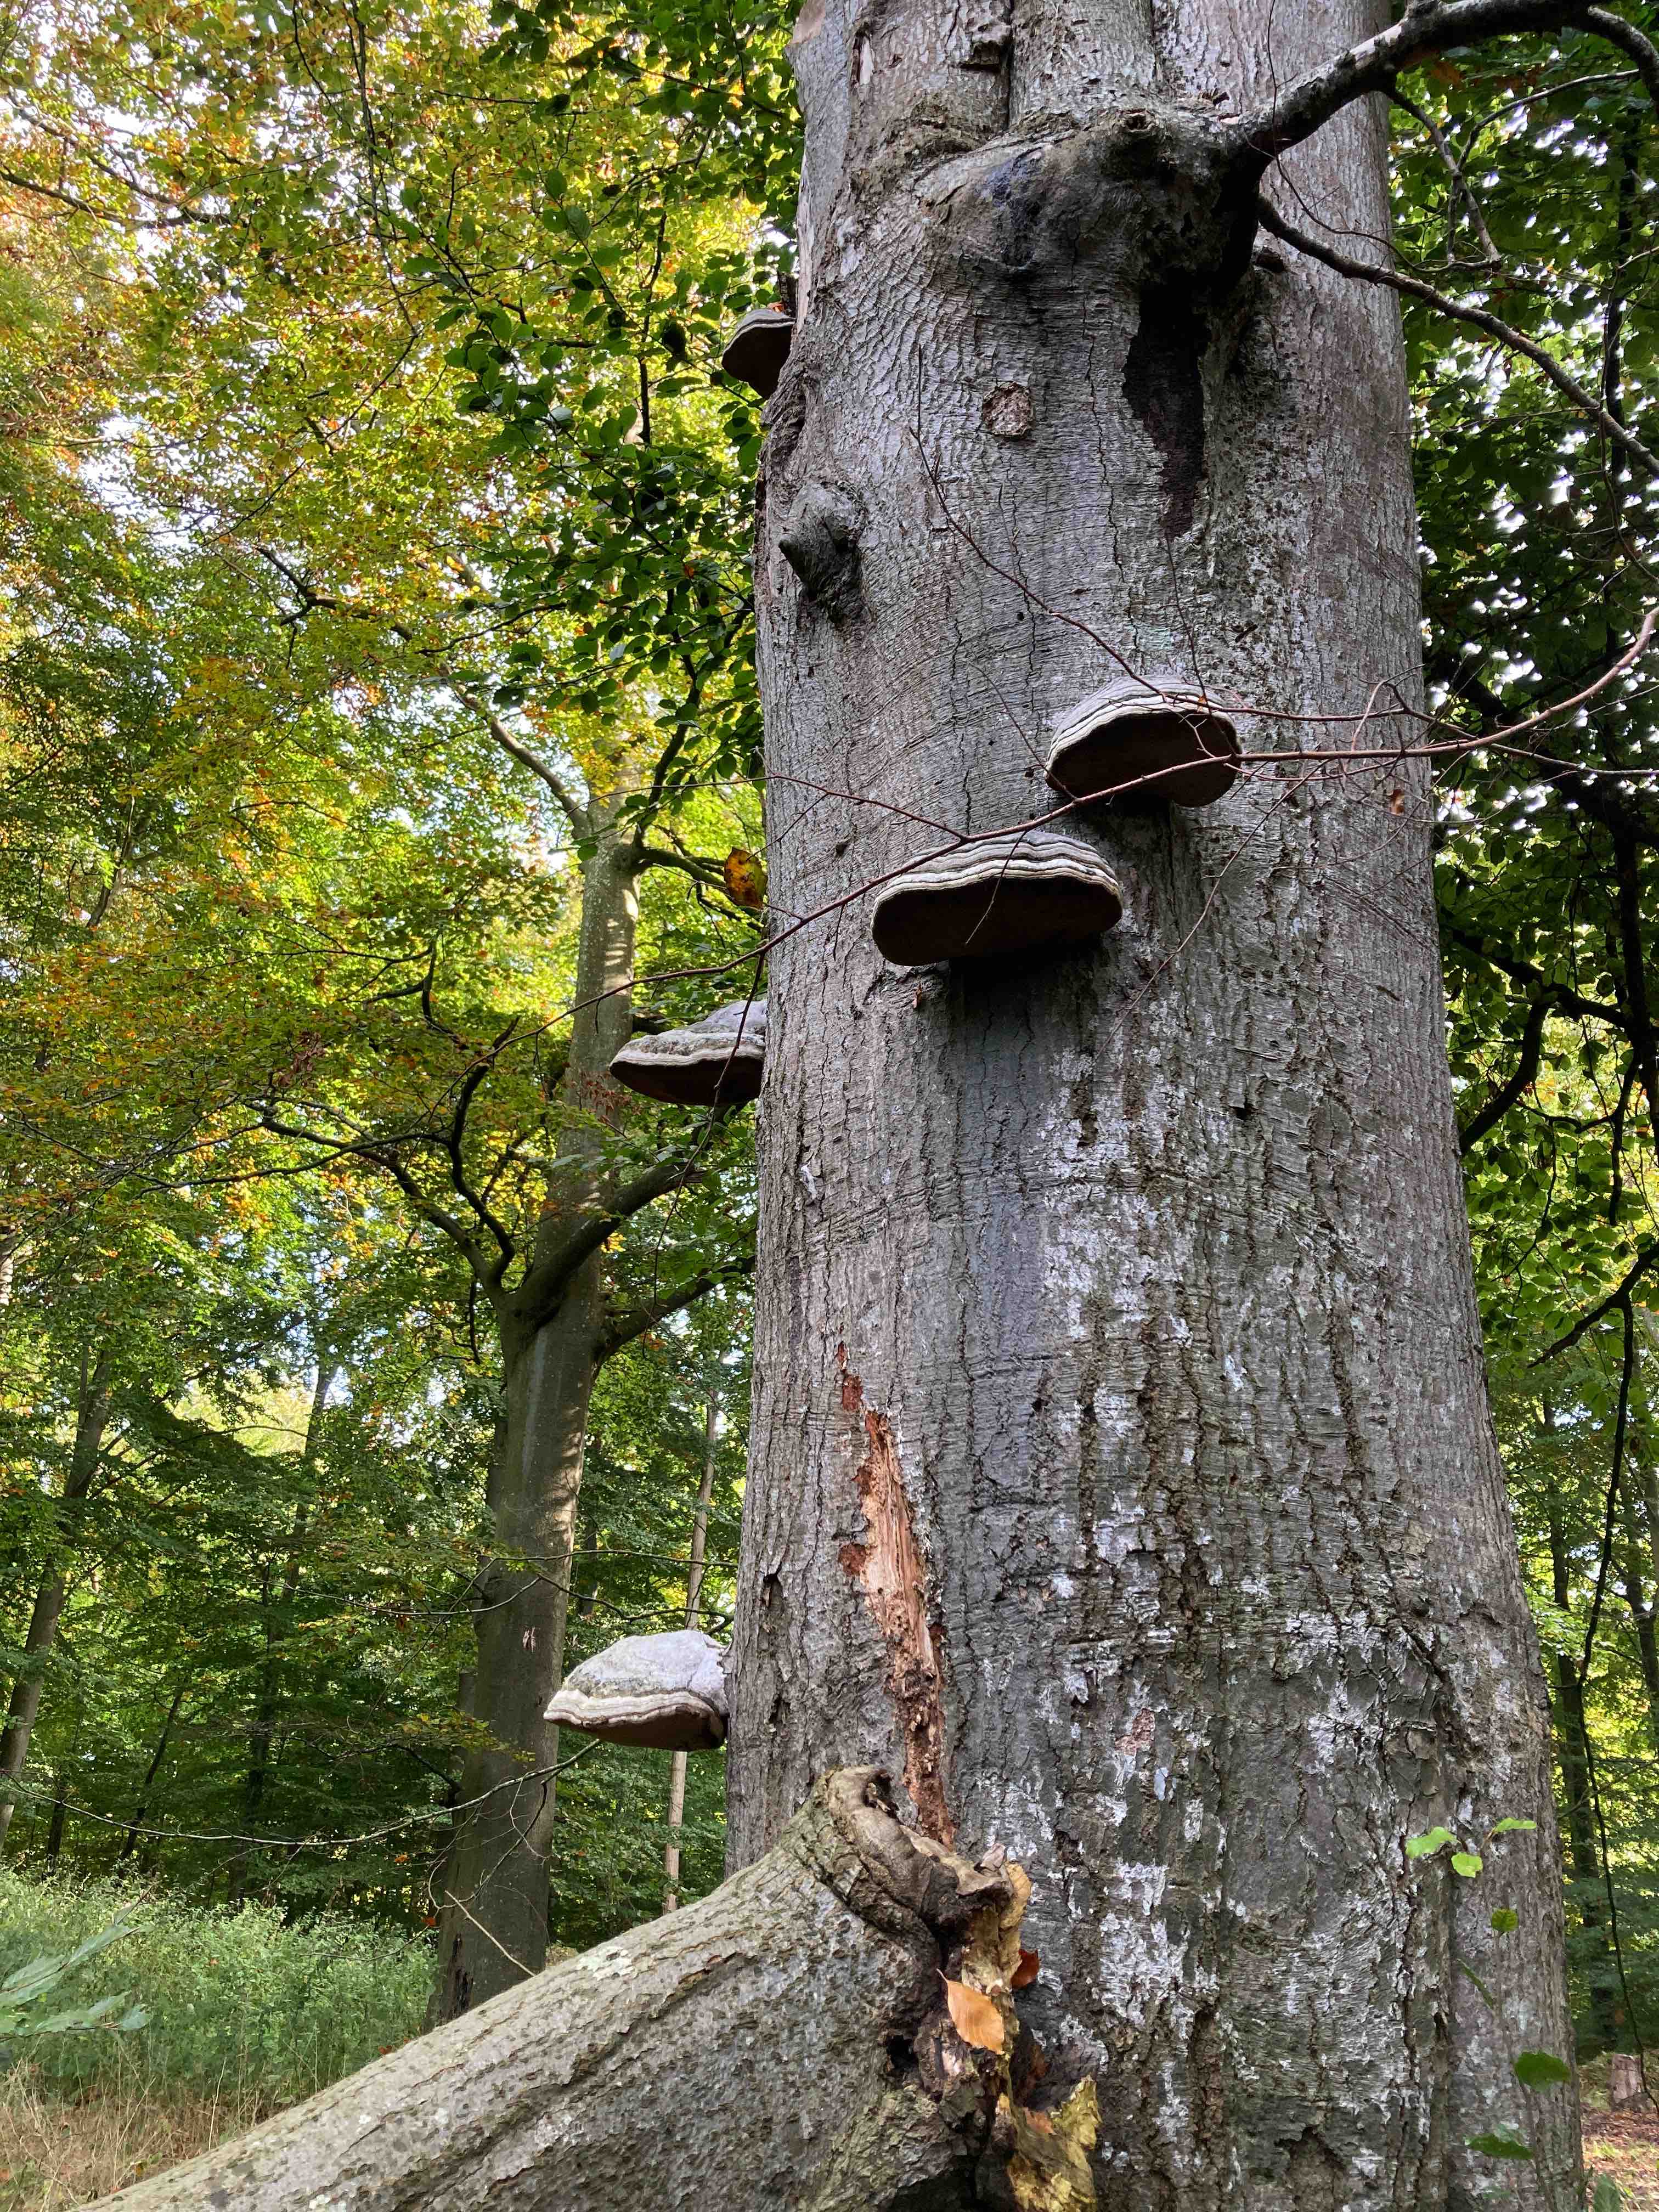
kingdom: Fungi
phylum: Basidiomycota
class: Agaricomycetes
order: Polyporales
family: Polyporaceae
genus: Fomes
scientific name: Fomes fomentarius
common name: tøndersvamp
